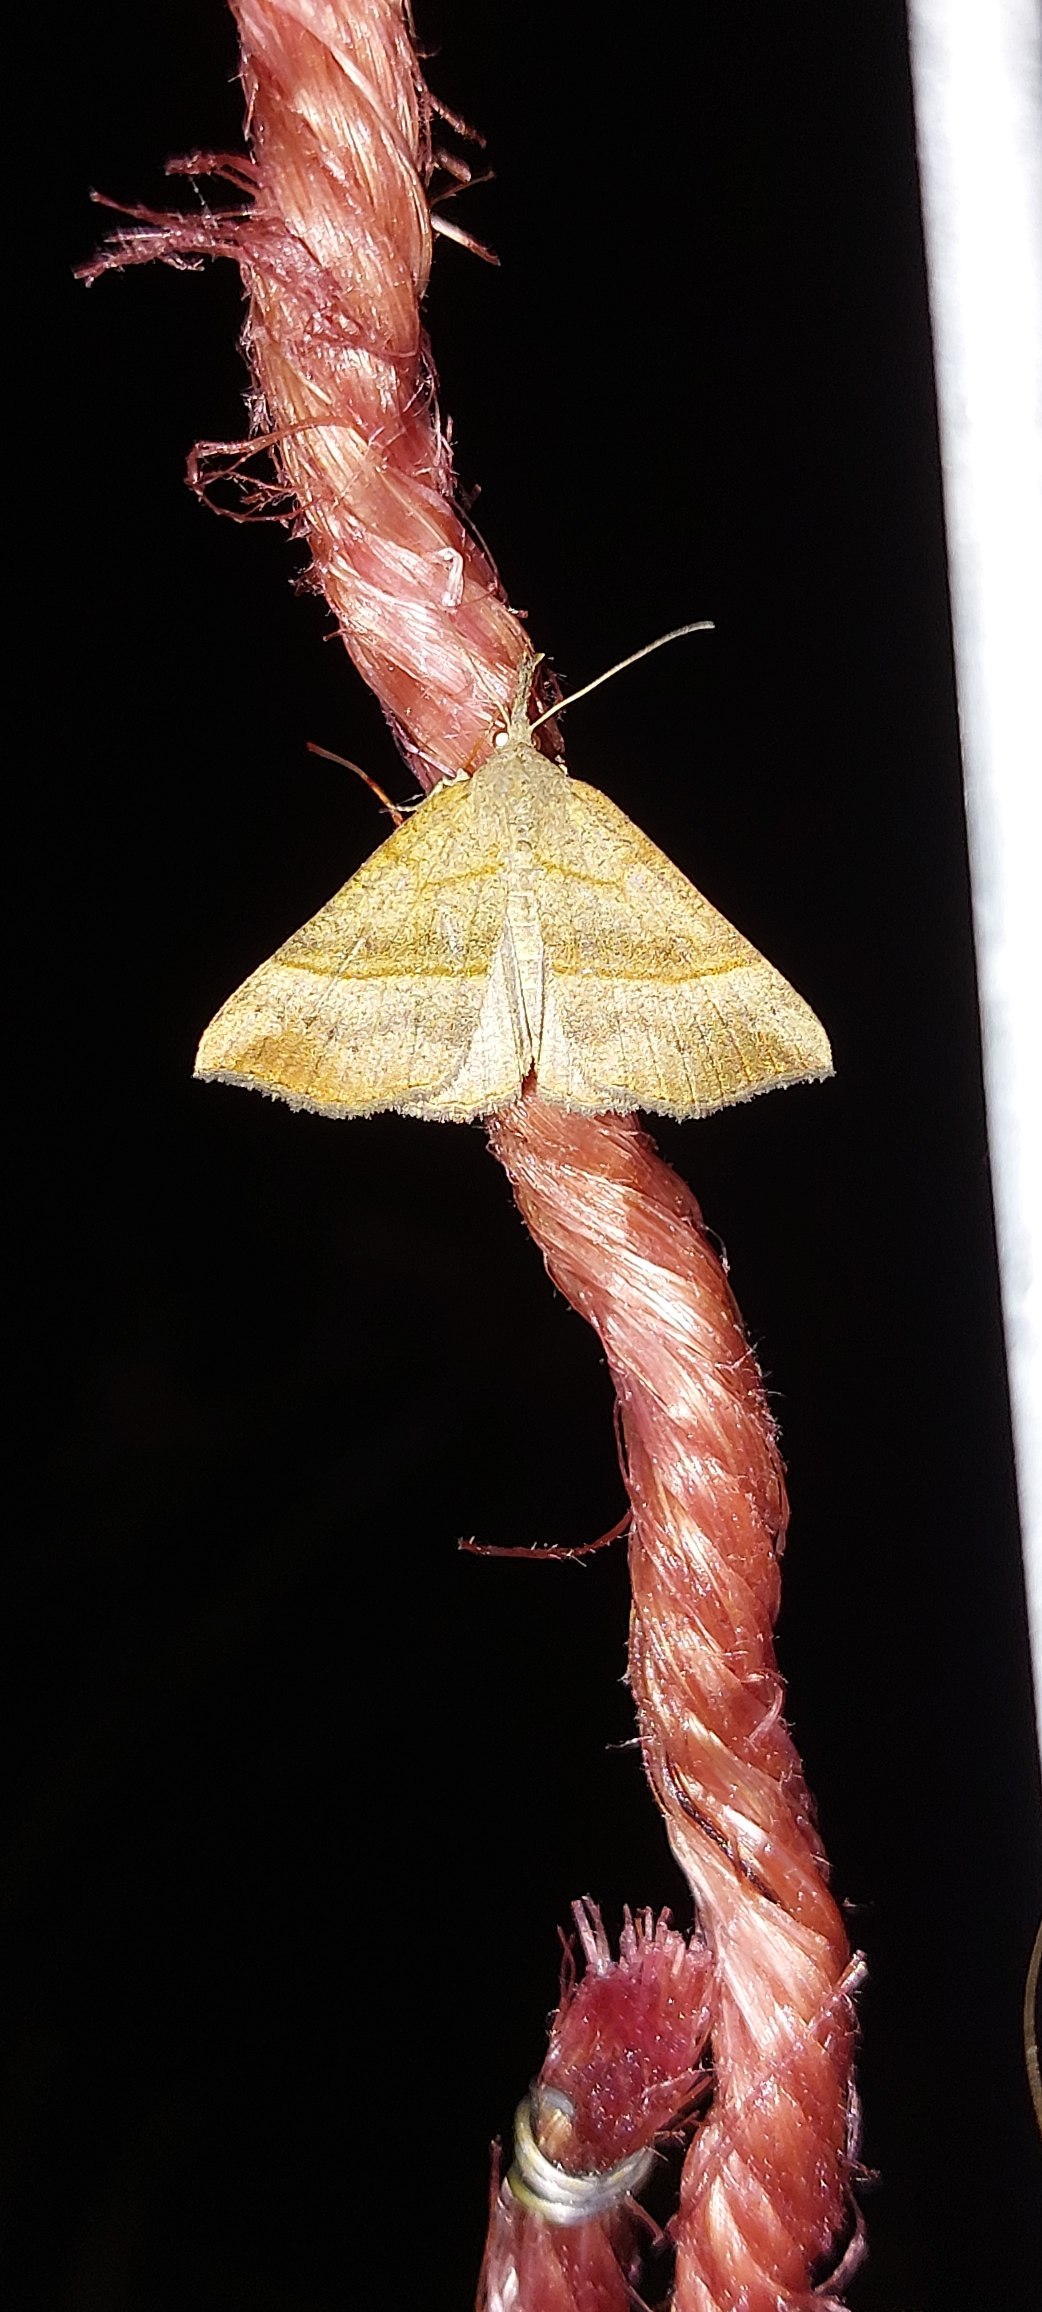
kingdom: Animalia
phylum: Arthropoda
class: Insecta
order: Lepidoptera
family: Erebidae
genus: Hypena
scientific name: Hypena proboscidalis
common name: Snudeugle
